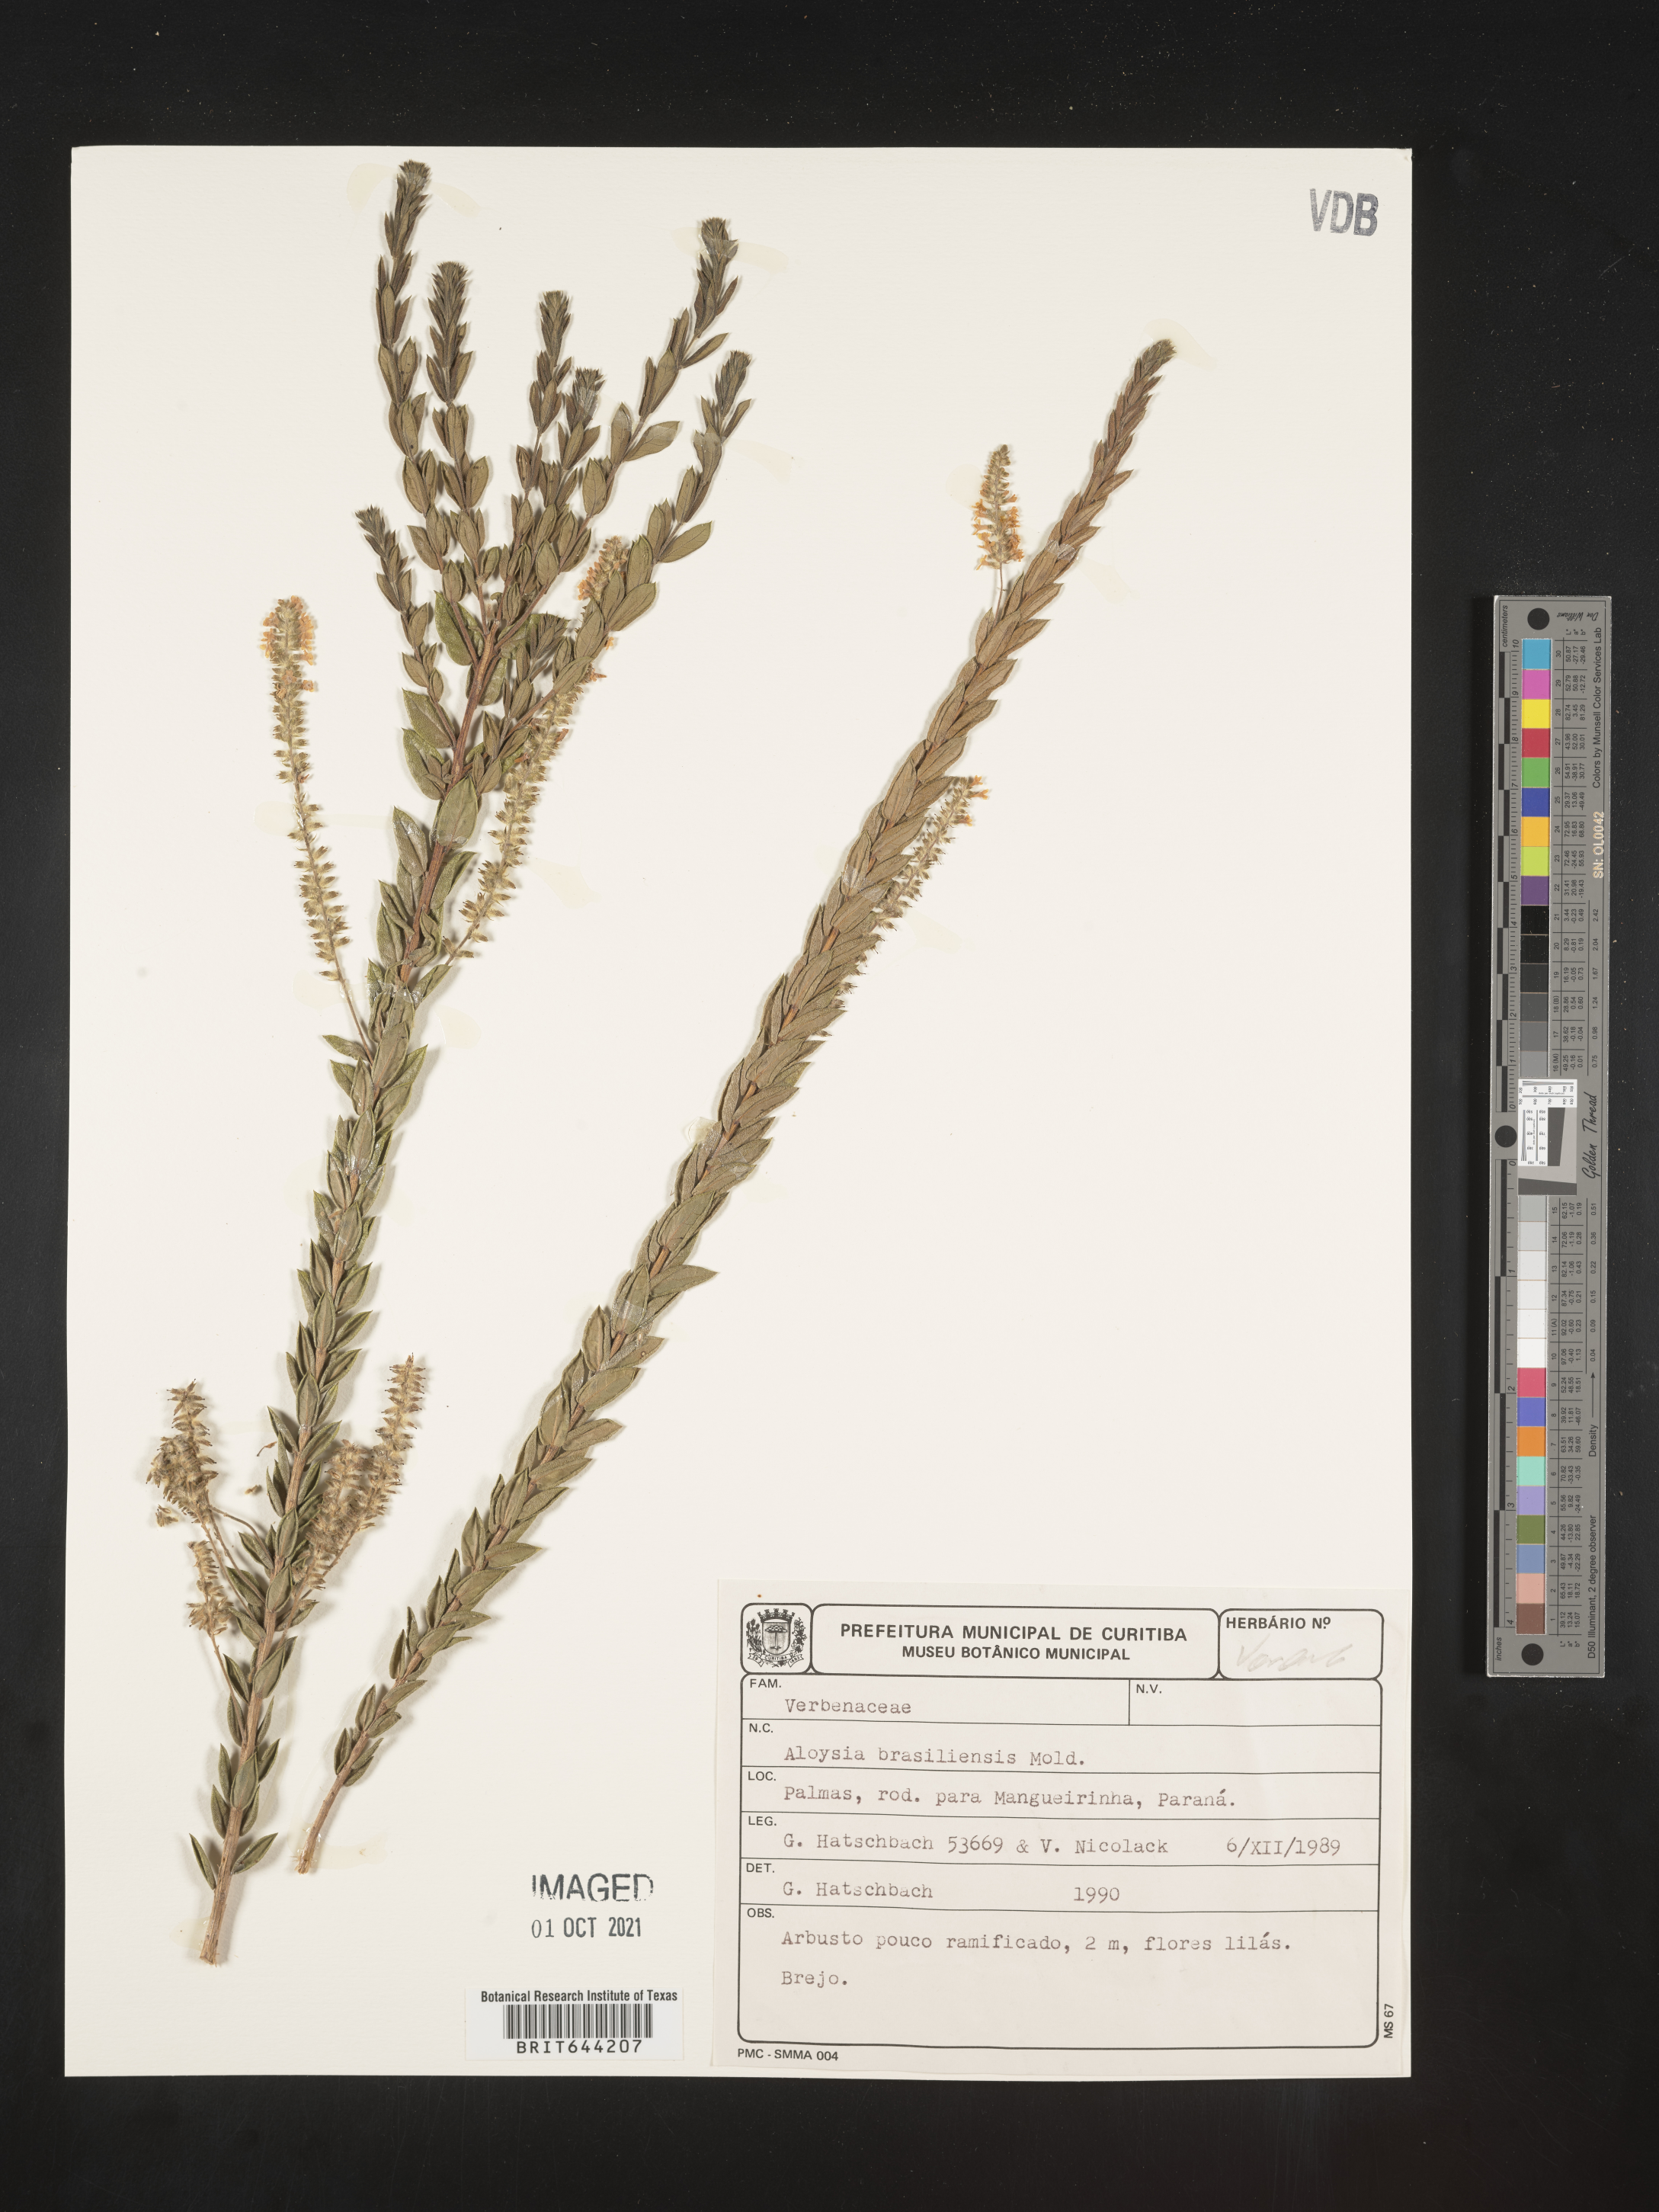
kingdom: Plantae
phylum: Tracheophyta
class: Magnoliopsida
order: Lamiales
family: Verbenaceae
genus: Aloysia
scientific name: Aloysia
